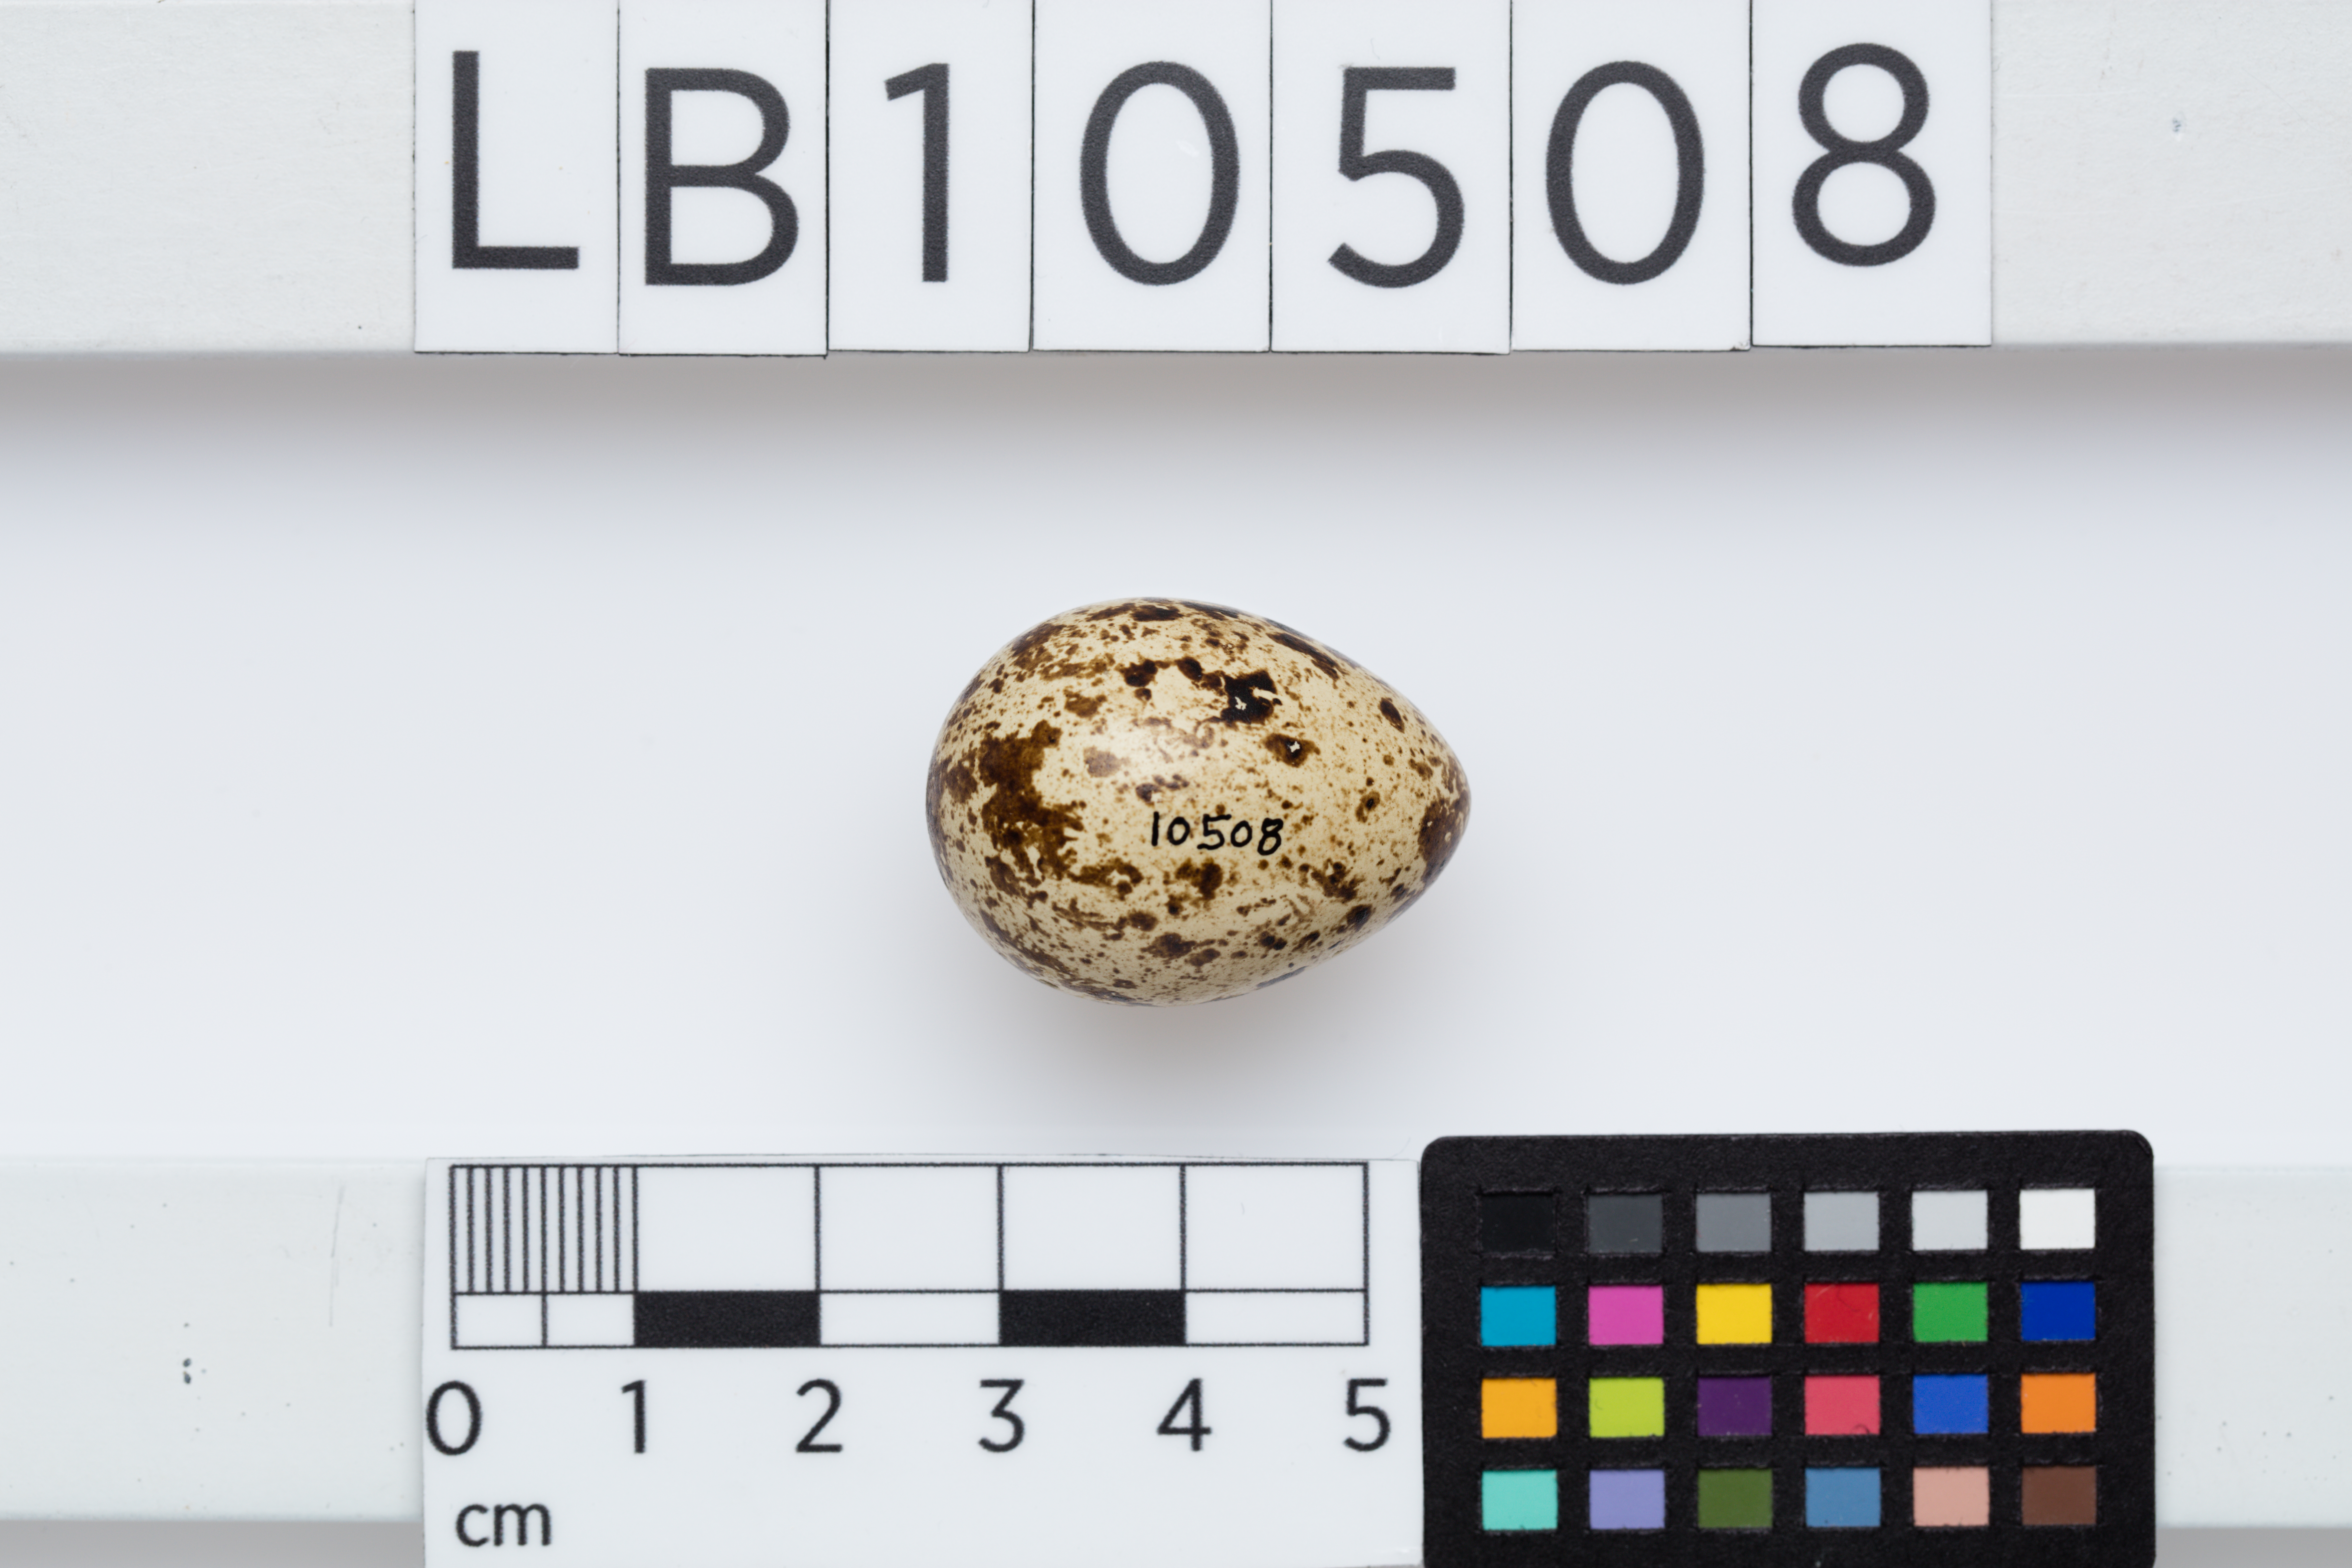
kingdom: Animalia
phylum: Chordata
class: Aves
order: Galliformes
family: Phasianidae
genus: Coturnix
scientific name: Coturnix coturnix
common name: Common quail
